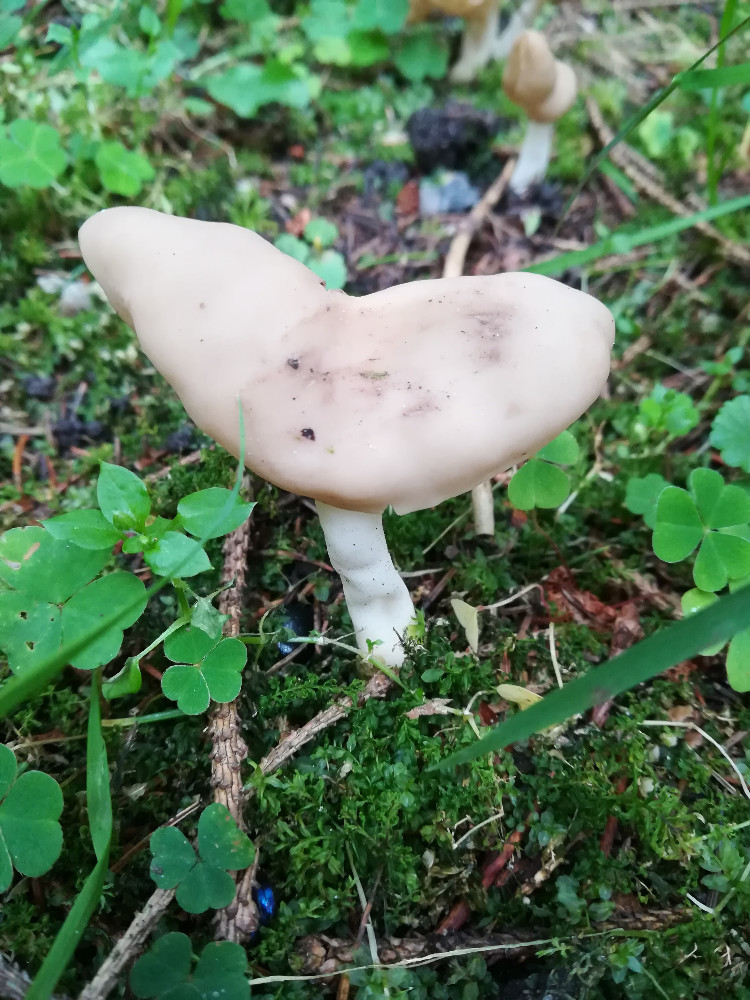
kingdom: Fungi
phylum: Ascomycota
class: Pezizomycetes
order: Pezizales
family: Helvellaceae
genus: Helvella
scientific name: Helvella elastica
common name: elastik-foldhat
